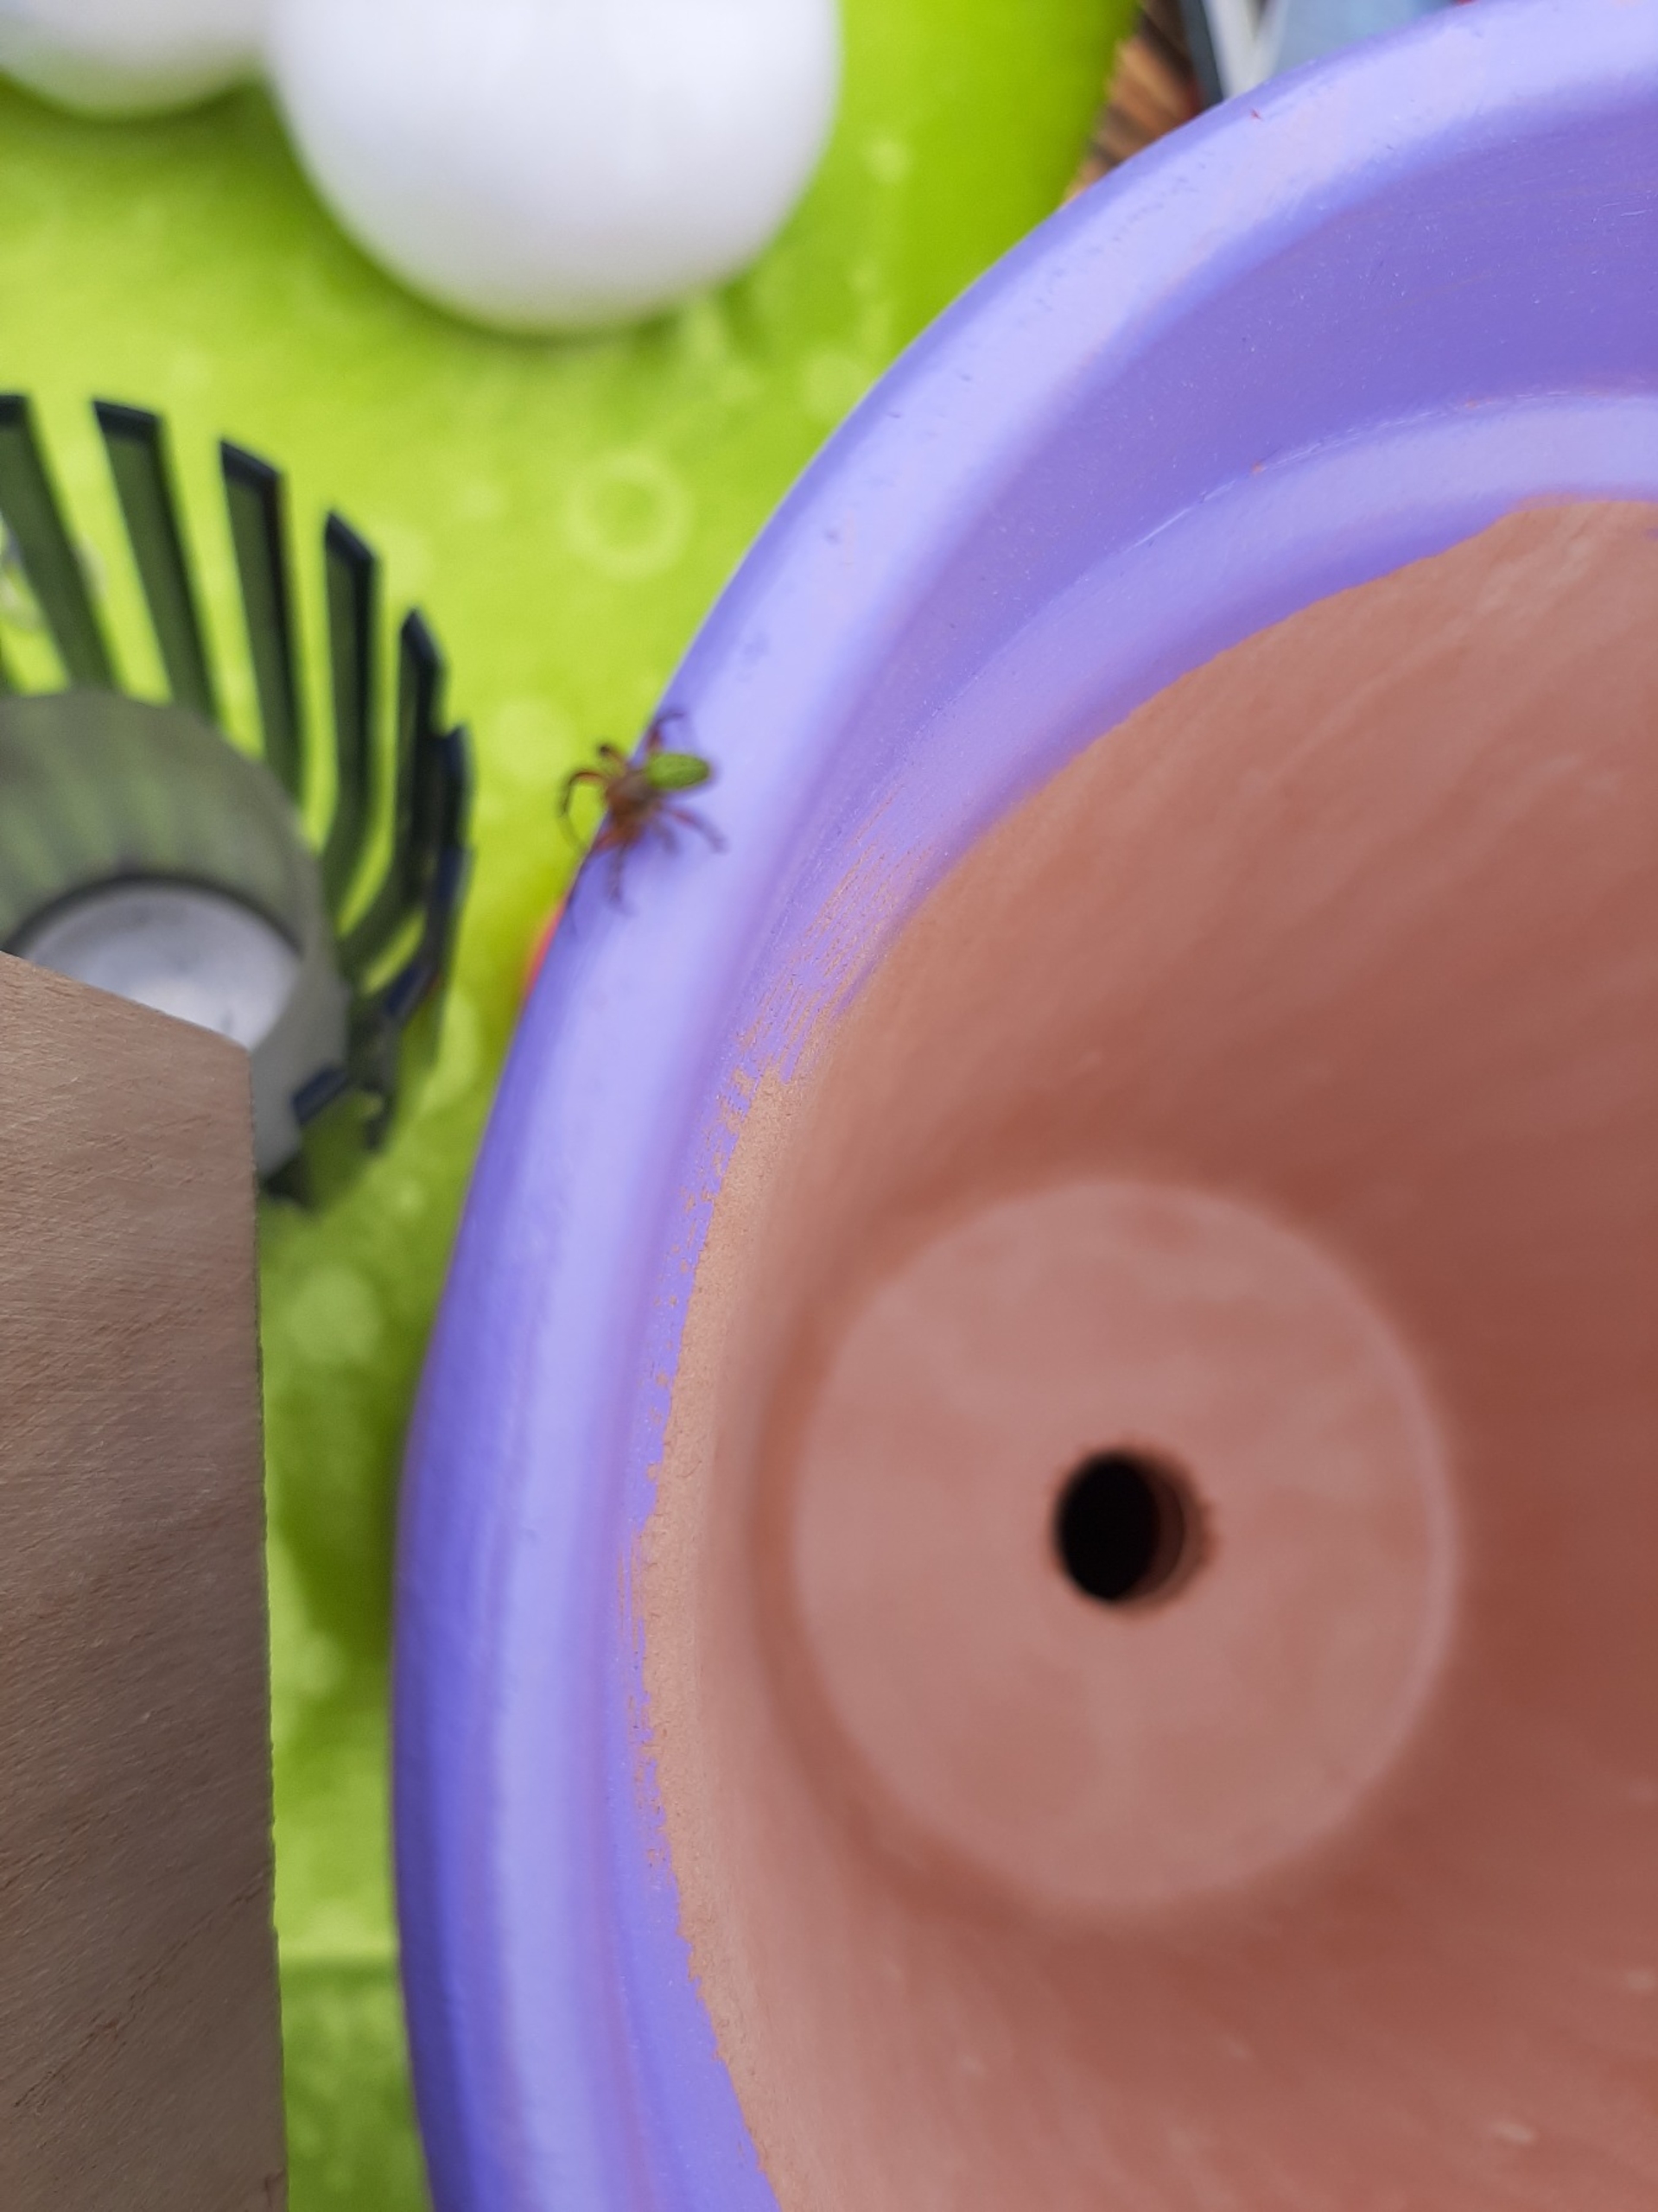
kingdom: Animalia
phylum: Arthropoda
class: Arachnida
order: Araneae
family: Araneidae
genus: Araniella
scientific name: Araniella
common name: Agurkeedderkopslægten
